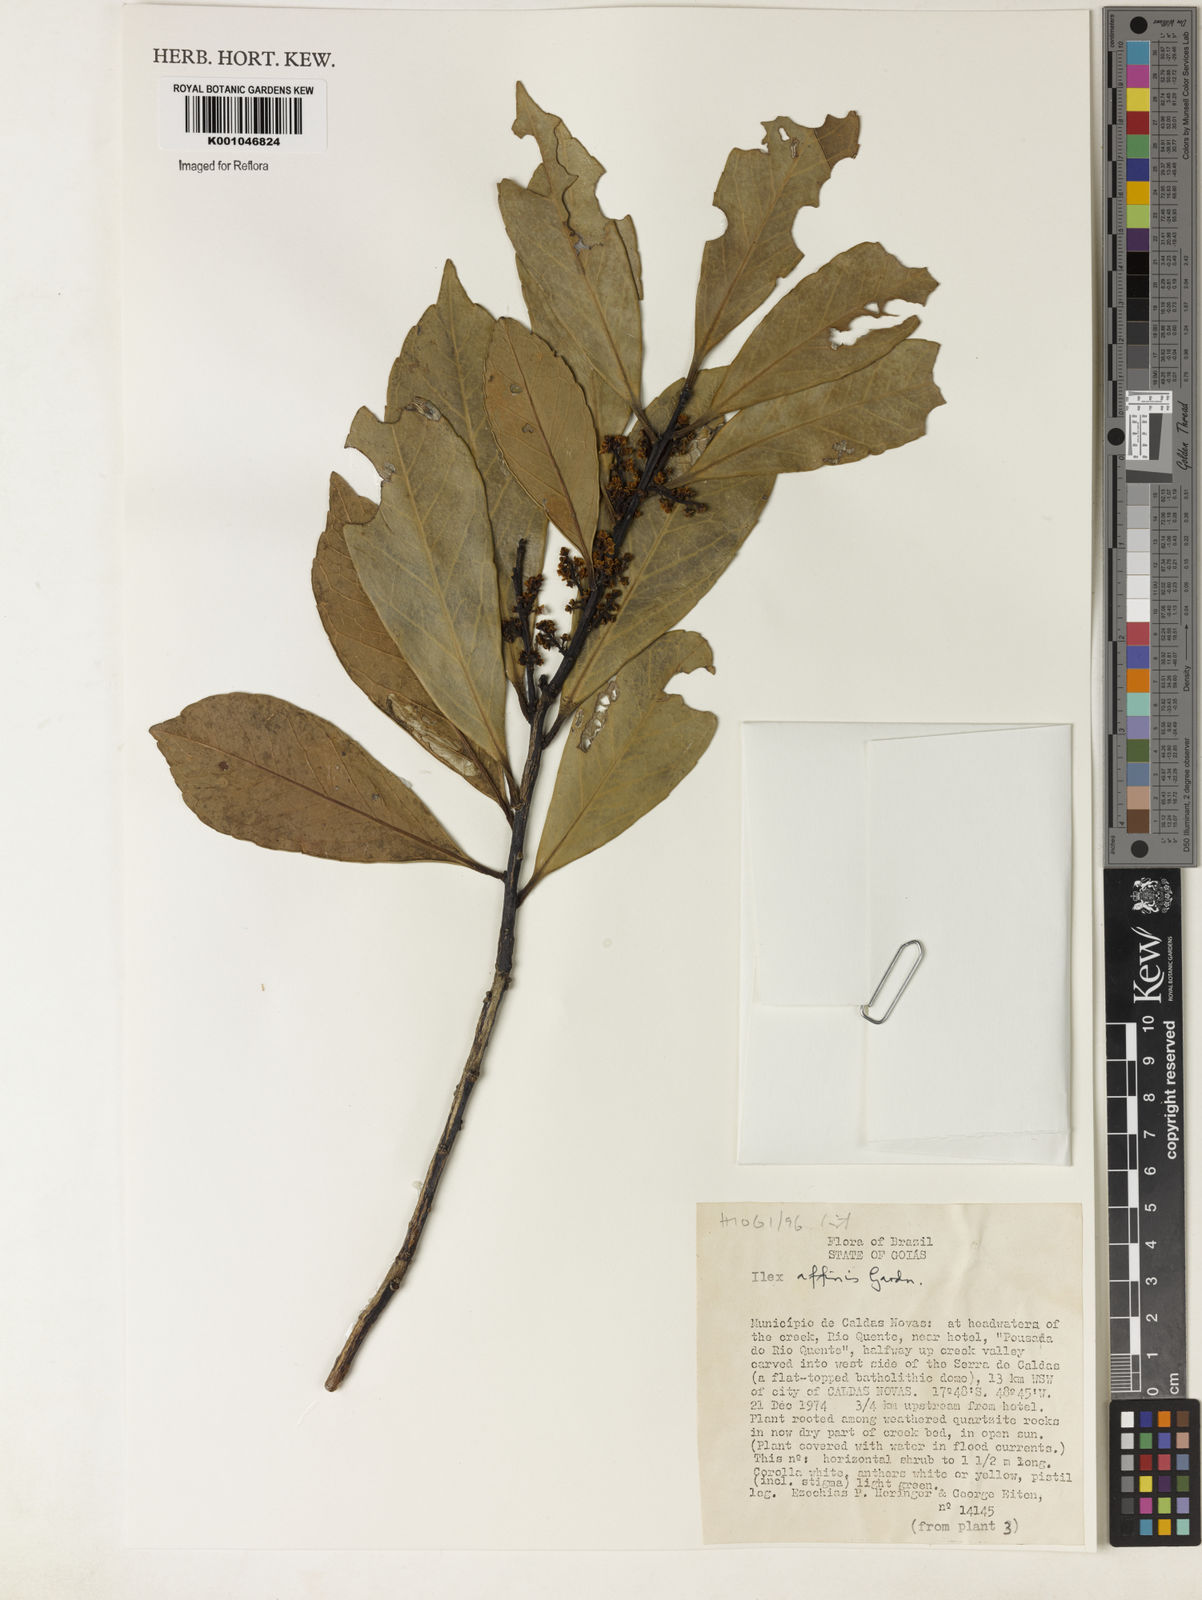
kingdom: Plantae
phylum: Tracheophyta
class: Magnoliopsida
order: Aquifoliales
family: Aquifoliaceae
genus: Ilex
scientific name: Ilex affinis
